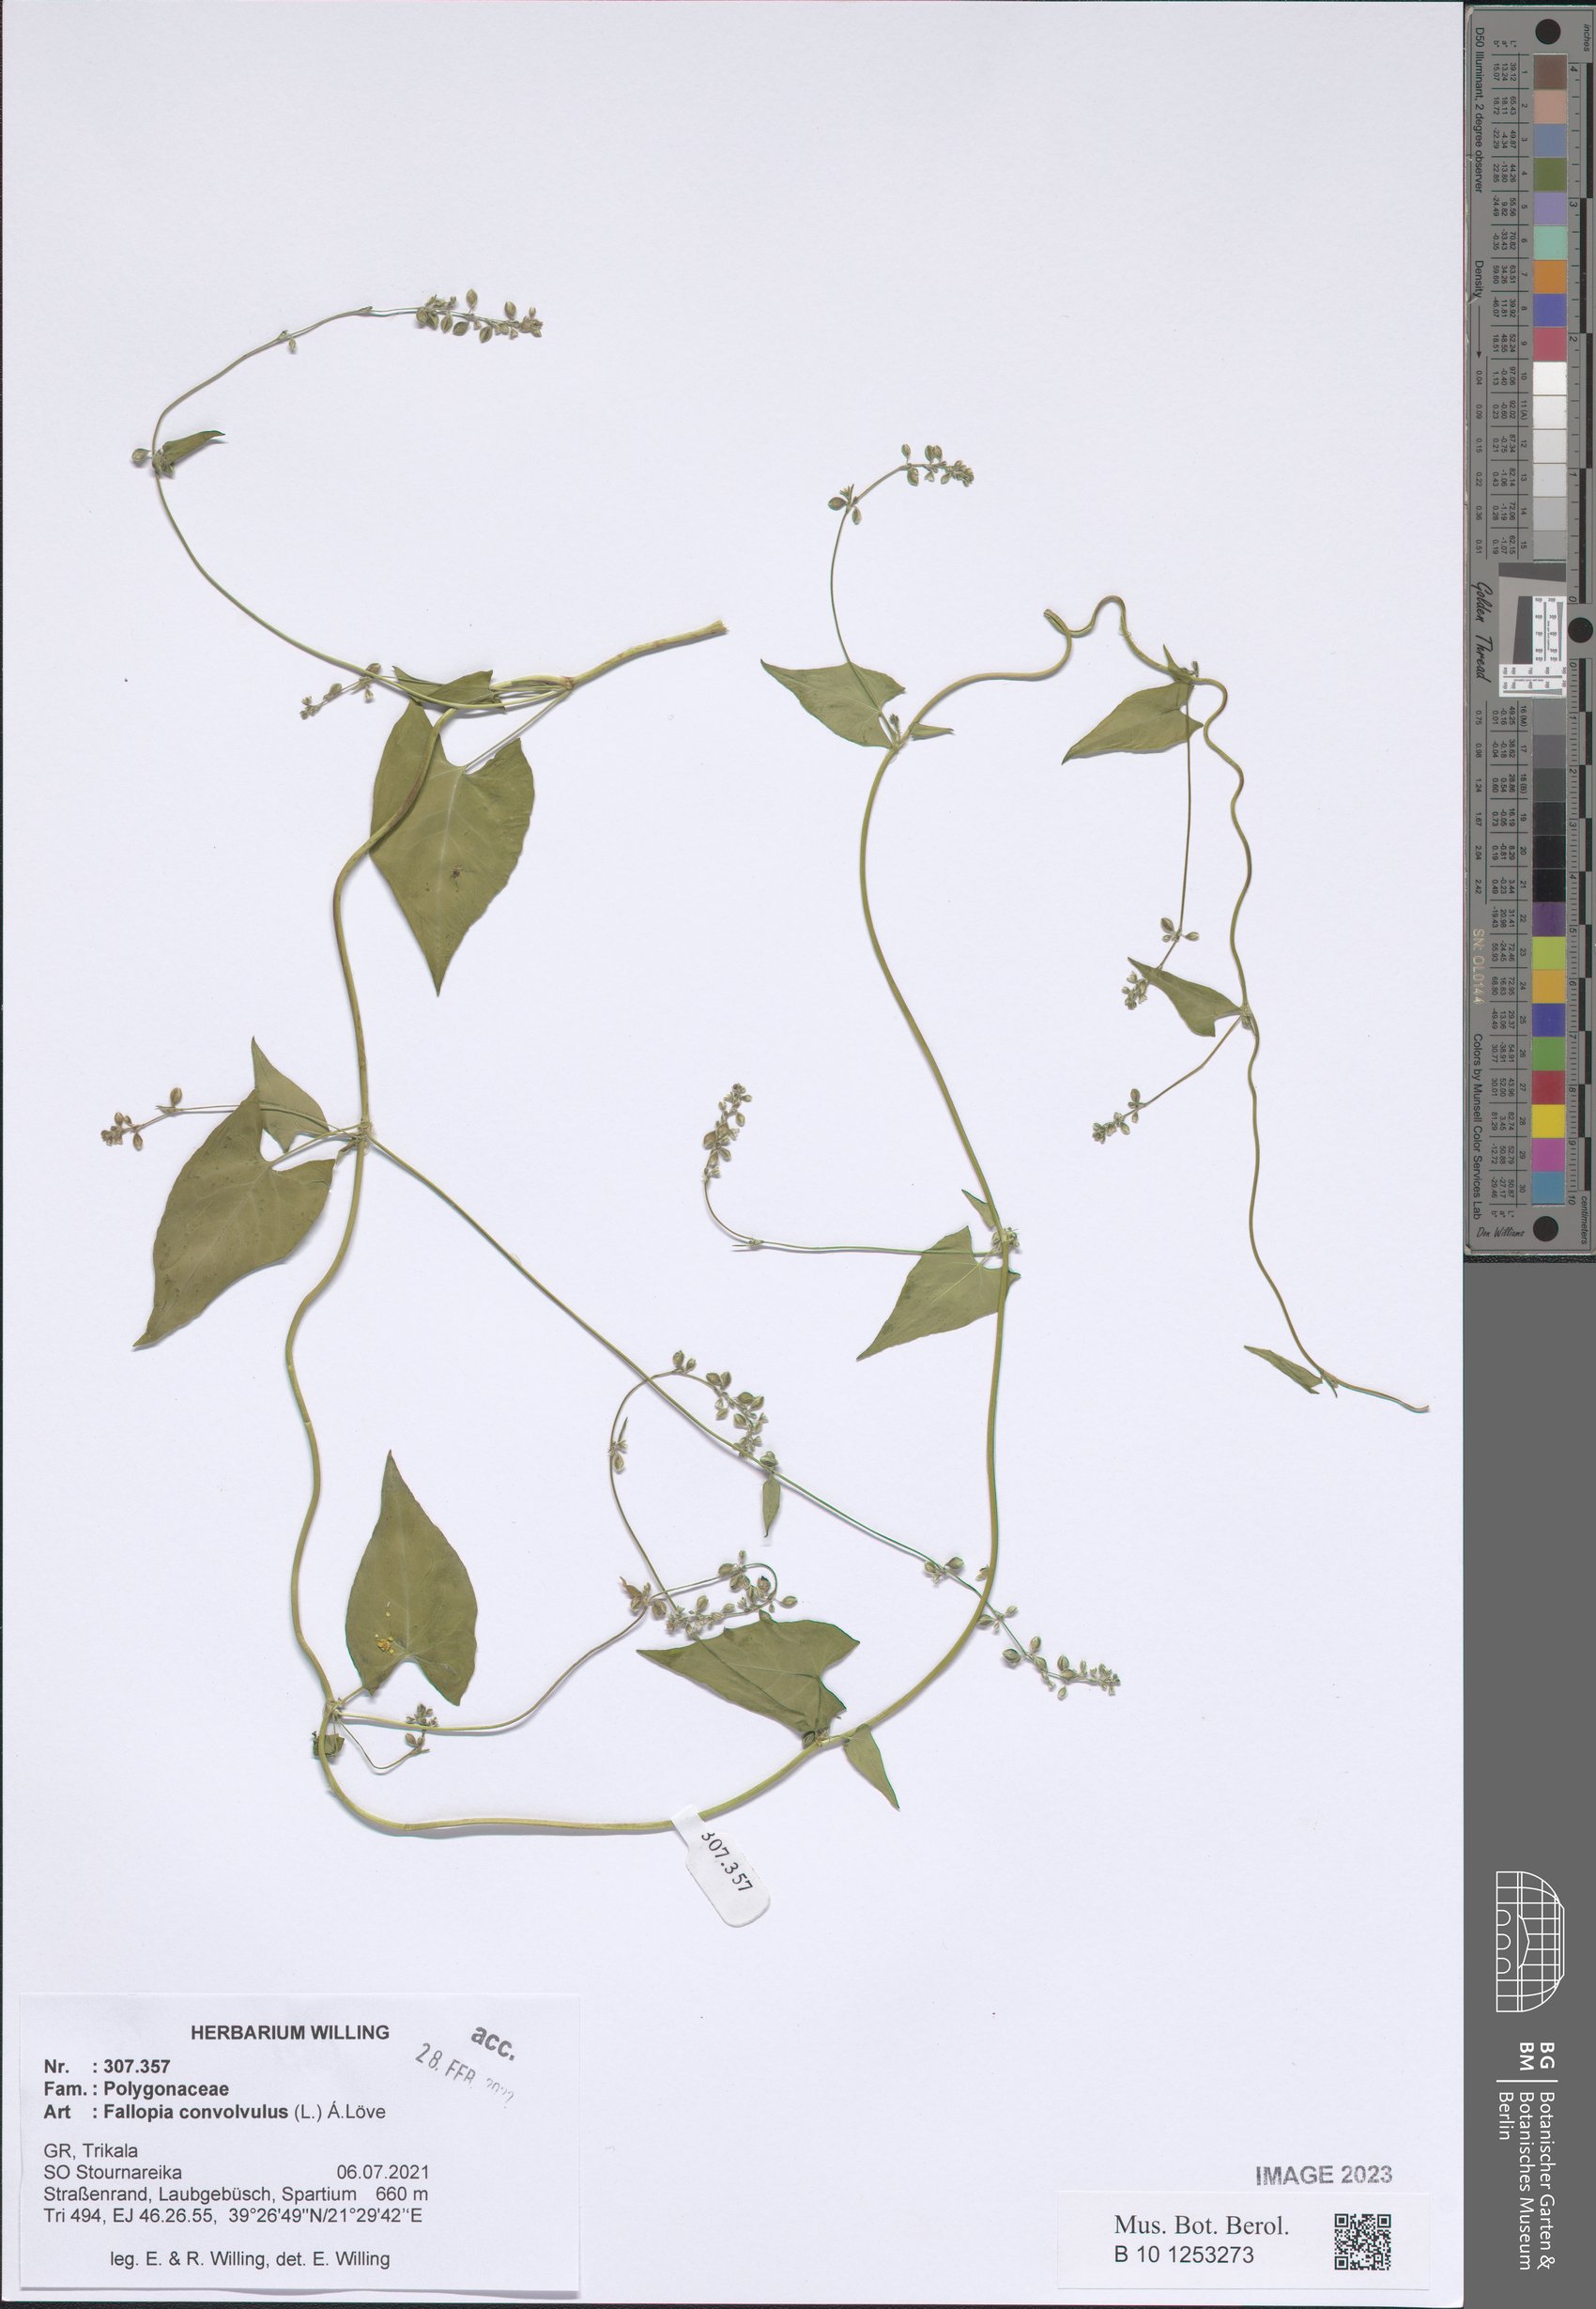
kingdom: Plantae
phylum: Tracheophyta
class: Magnoliopsida
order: Caryophyllales
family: Polygonaceae
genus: Fallopia
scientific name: Fallopia convolvulus
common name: Black bindweed
